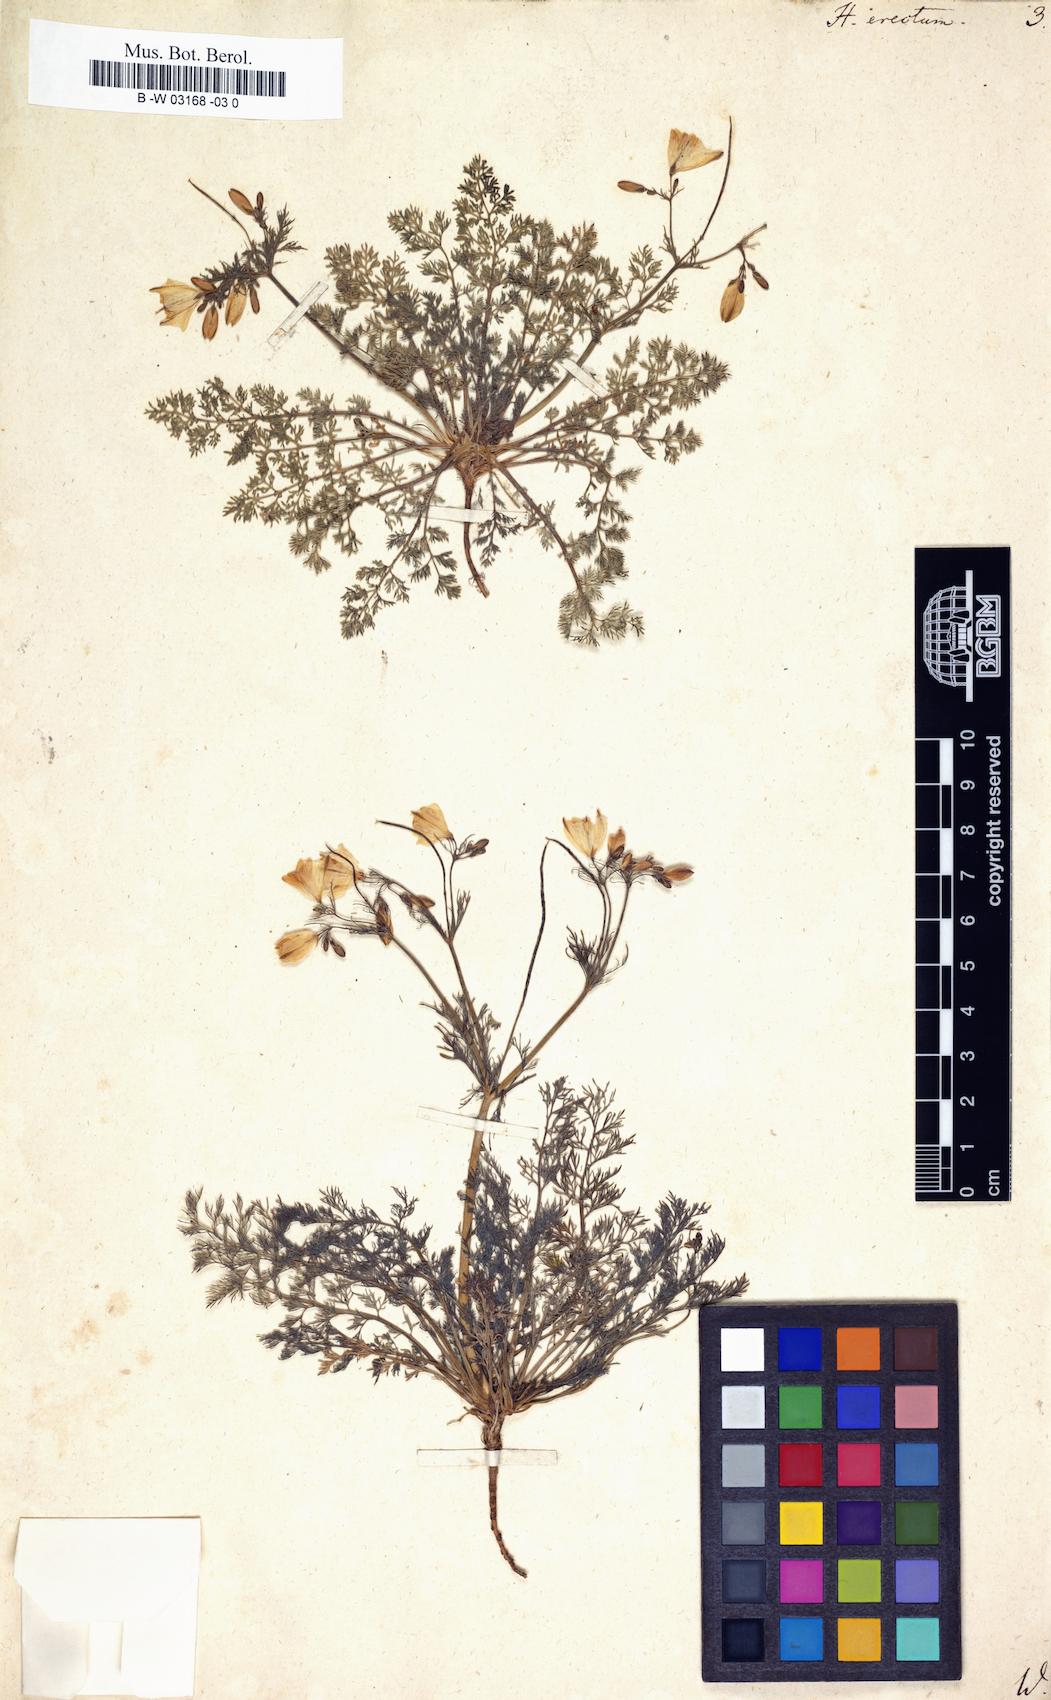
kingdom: Plantae
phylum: Tracheophyta
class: Magnoliopsida
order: Ranunculales
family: Papaveraceae
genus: Hypecoum
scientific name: Hypecoum erectum
